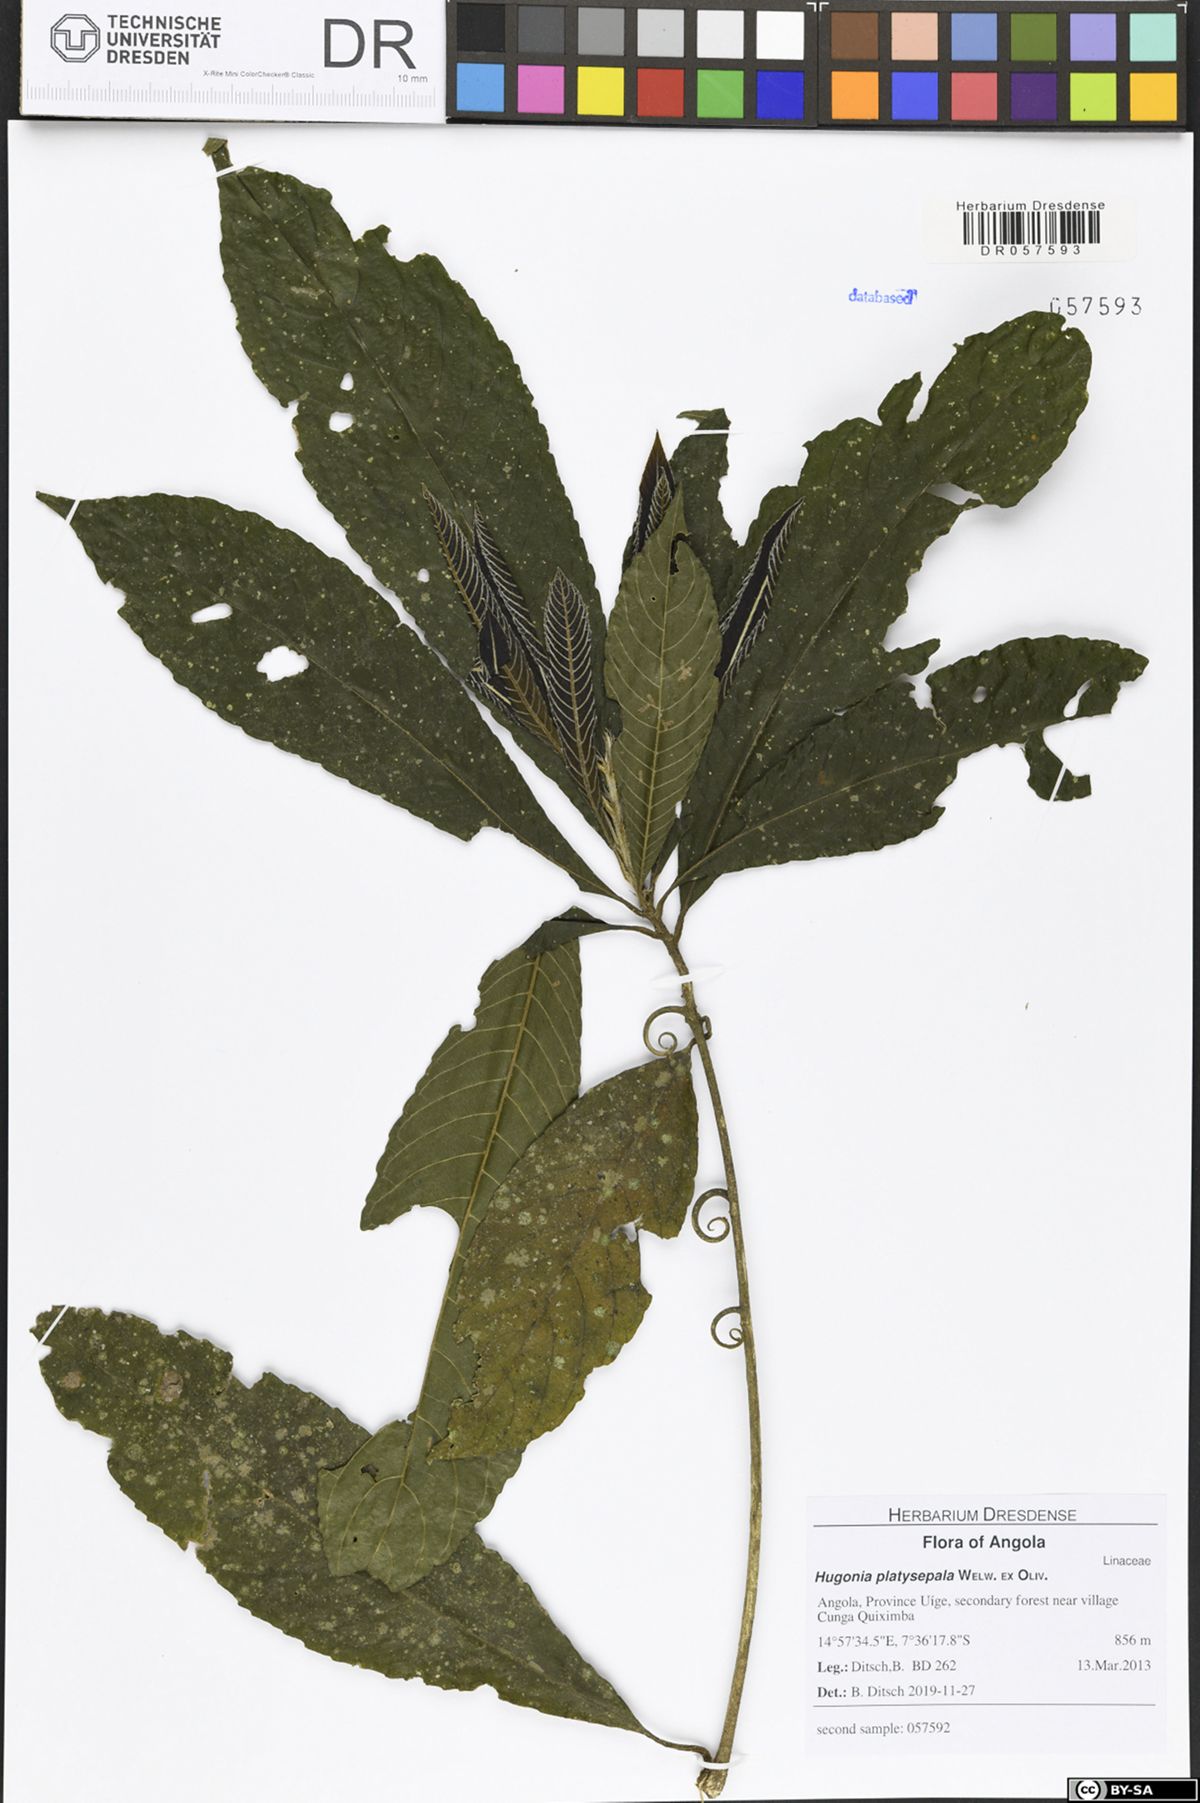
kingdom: Plantae
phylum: Tracheophyta
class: Magnoliopsida
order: Malpighiales
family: Linaceae
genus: Hugonia
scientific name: Hugonia platysepala
